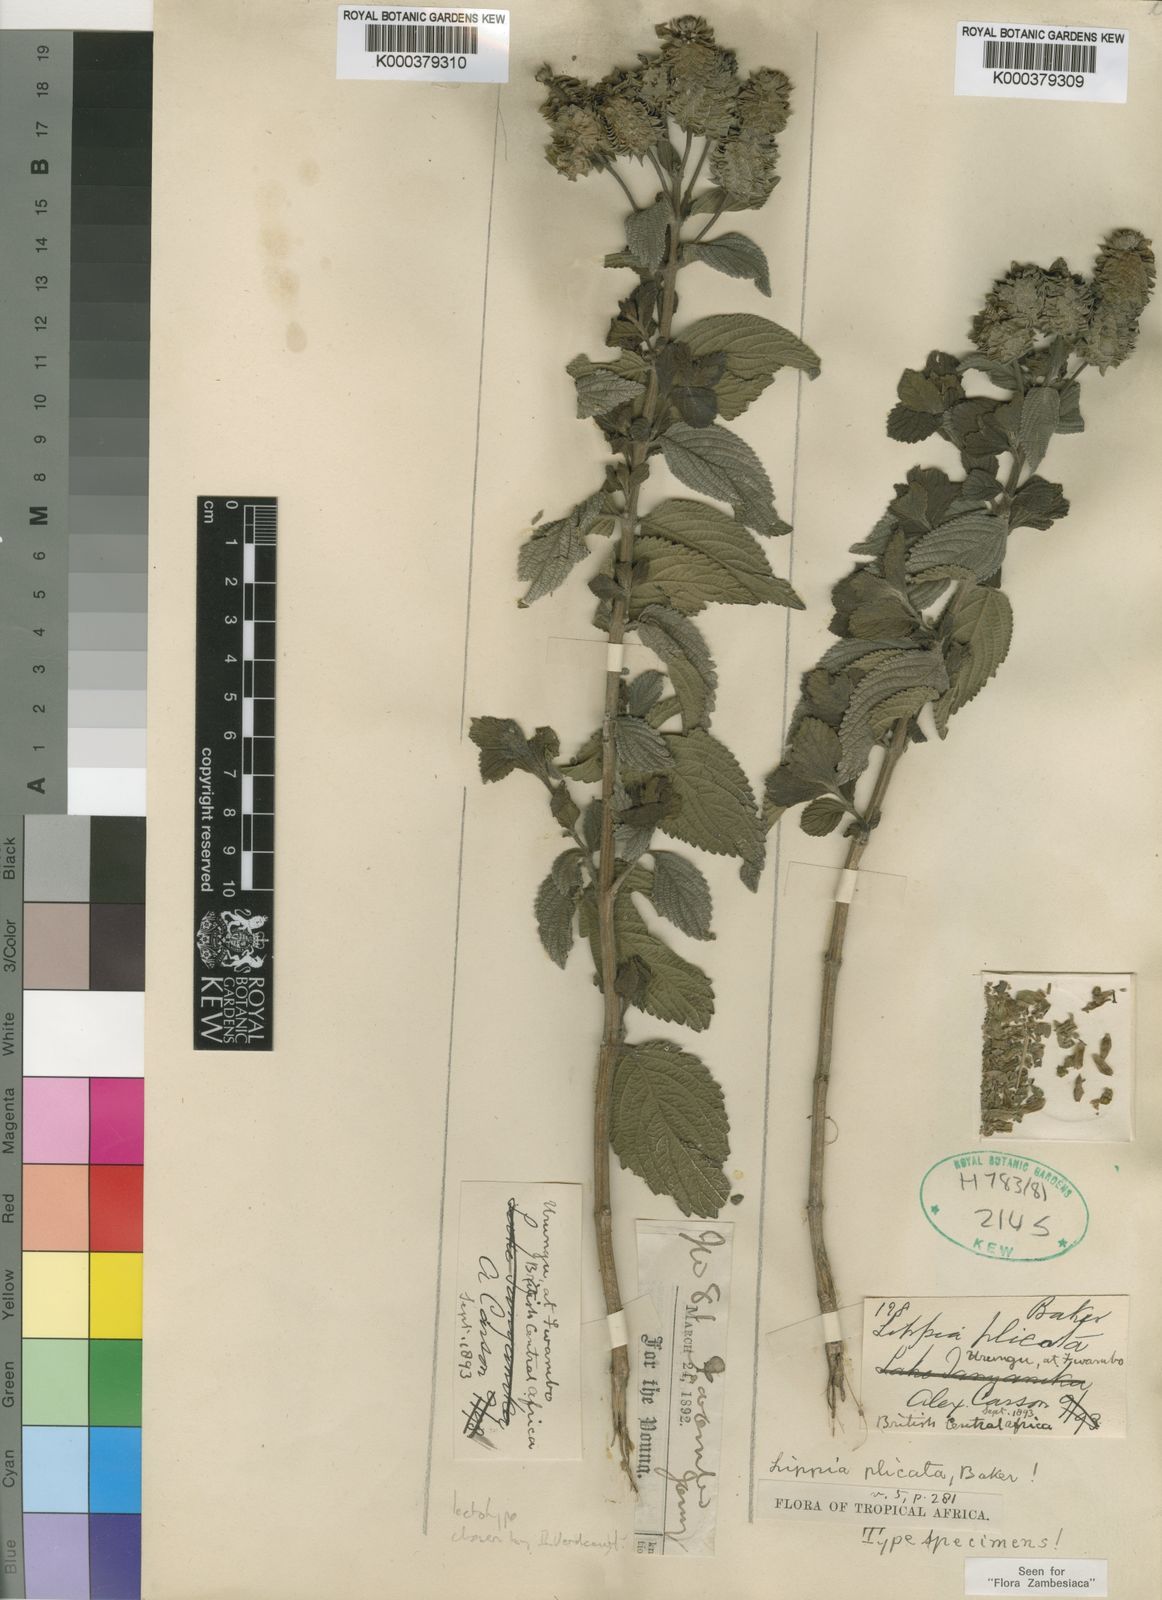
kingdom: Plantae
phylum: Tracheophyta
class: Magnoliopsida
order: Lamiales
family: Verbenaceae
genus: Lippia
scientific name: Lippia plicata
